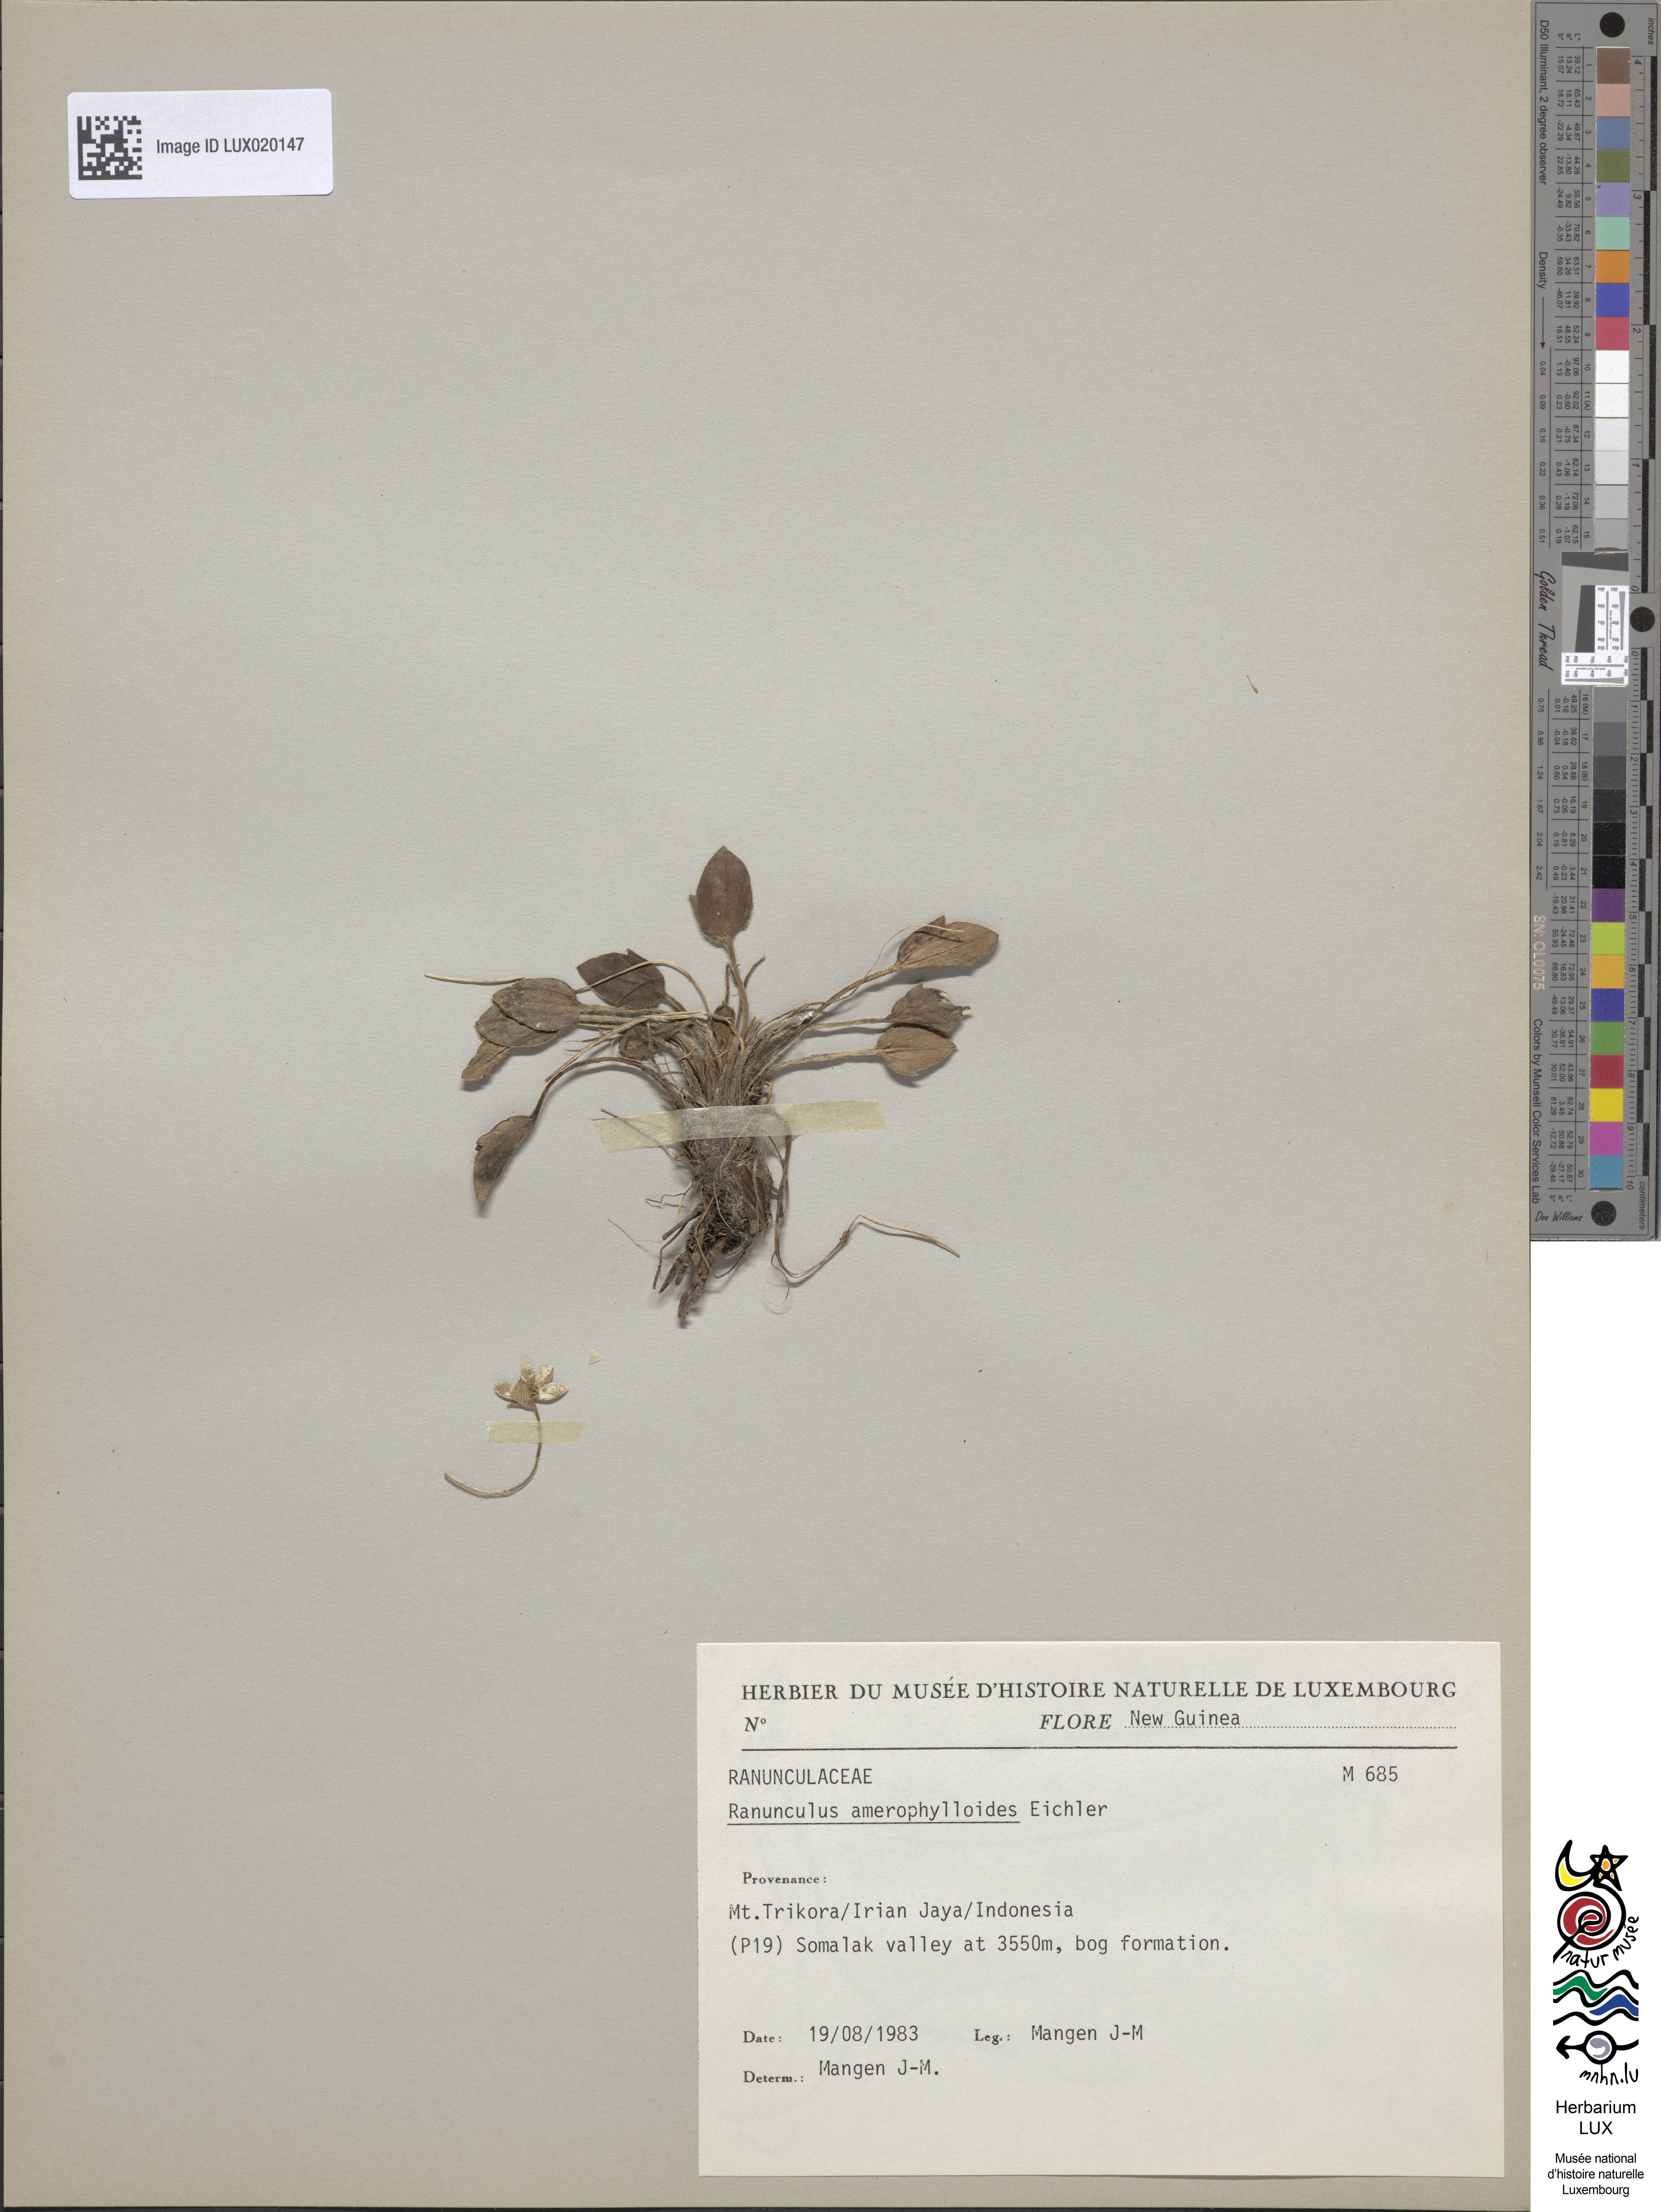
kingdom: Plantae
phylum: Tracheophyta
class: Magnoliopsida
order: Ranunculales
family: Ranunculaceae
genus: Ranunculus
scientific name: Ranunculus amerophylloides
